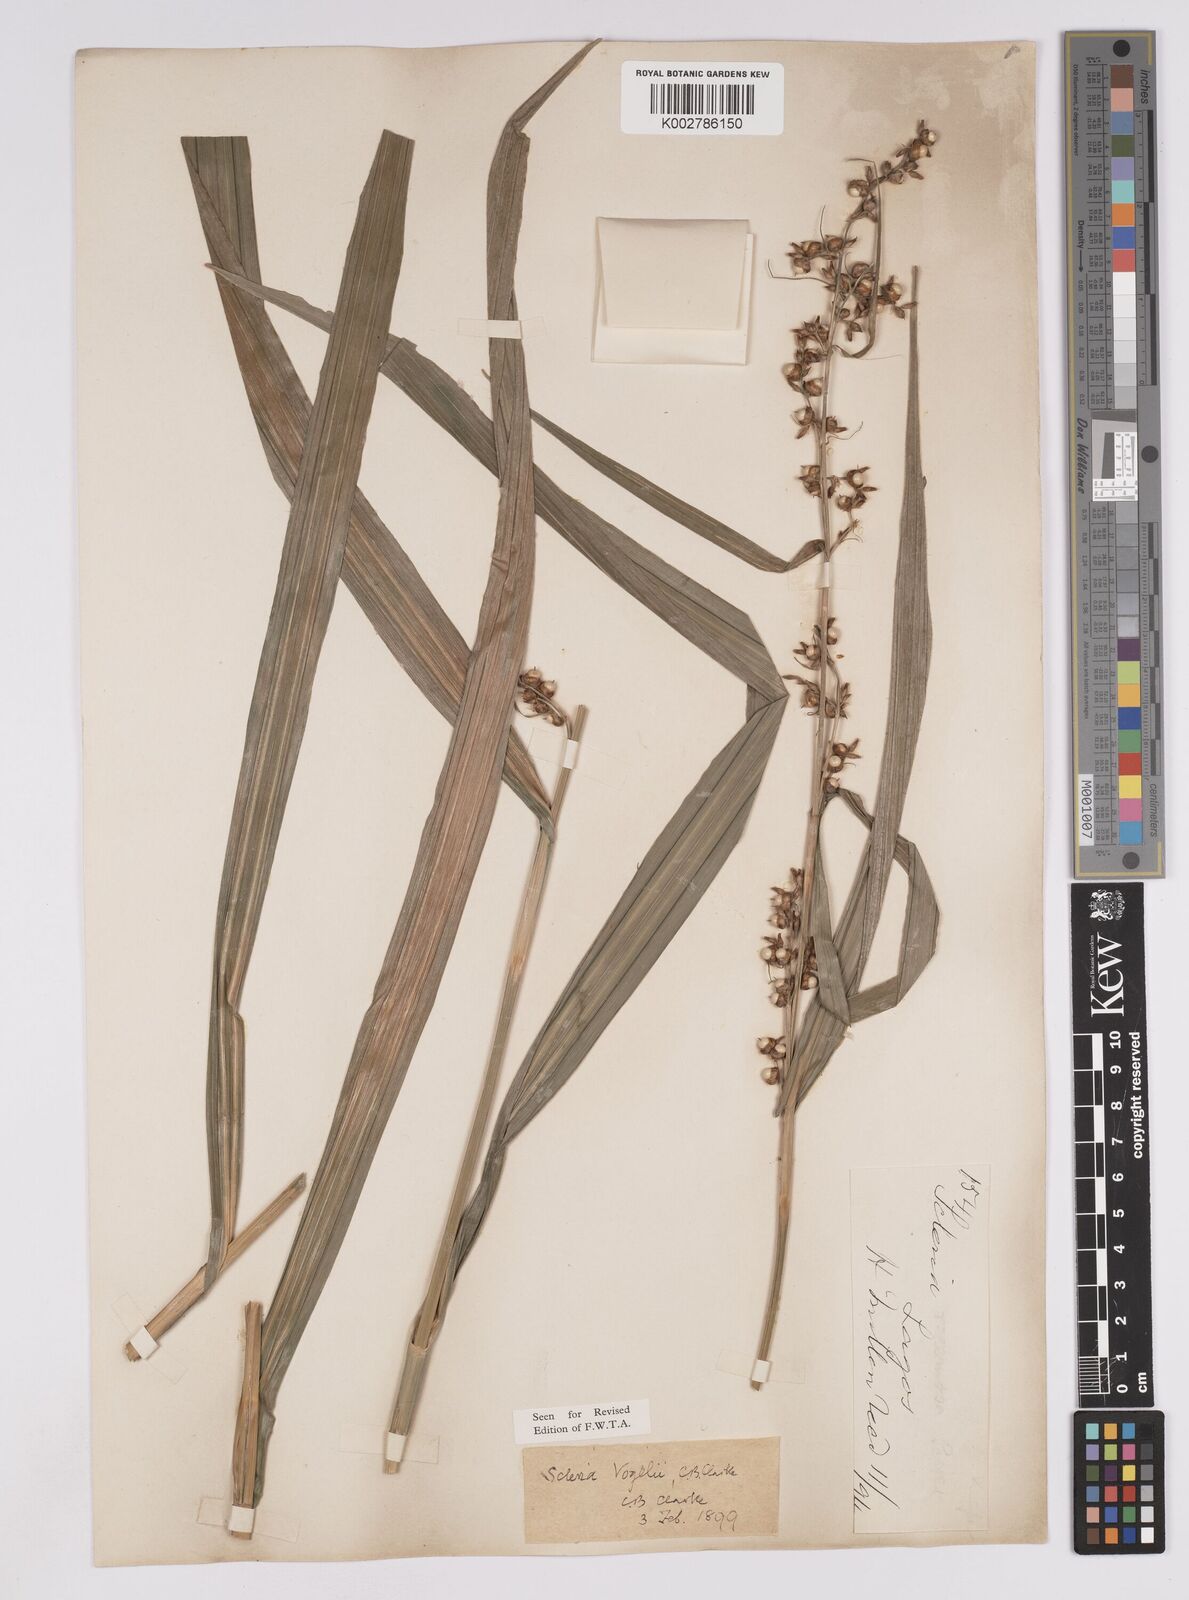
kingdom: Plantae
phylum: Tracheophyta
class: Liliopsida
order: Poales
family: Cyperaceae
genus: Scleria
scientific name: Scleria vogelii
